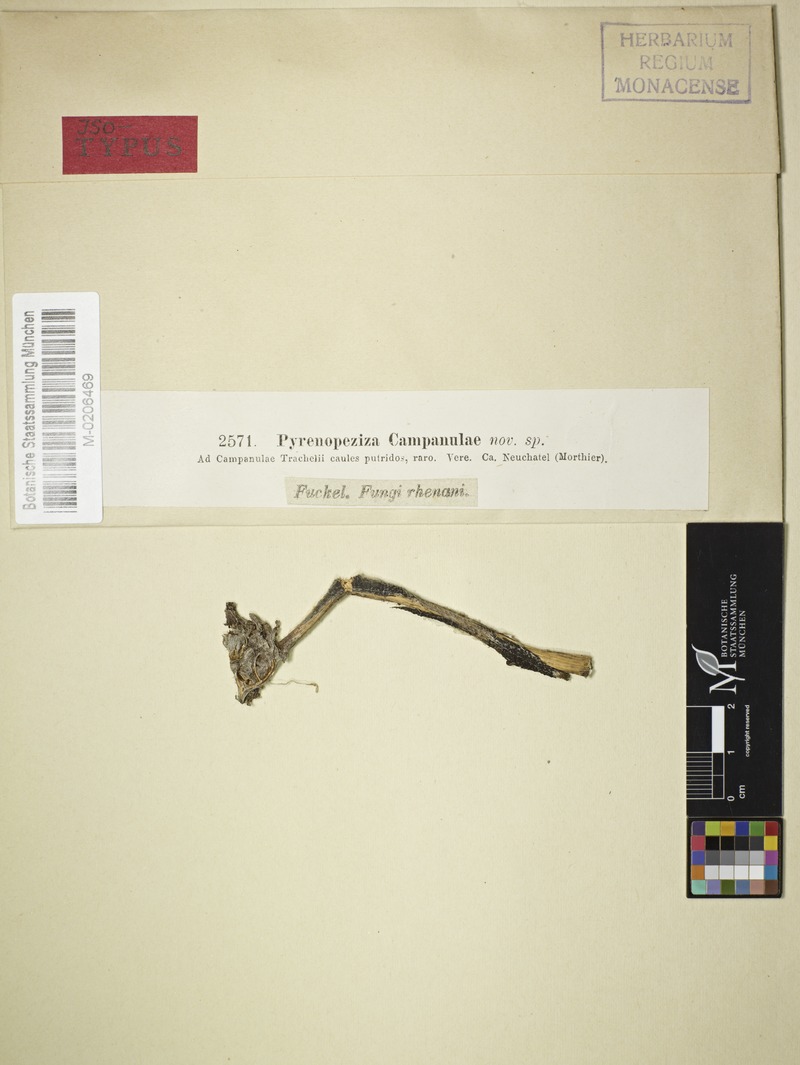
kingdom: Fungi
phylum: Ascomycota
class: Leotiomycetes
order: Helotiales
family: Ploettnerulaceae
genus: Pyrenopeziza
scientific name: Pyrenopeziza
